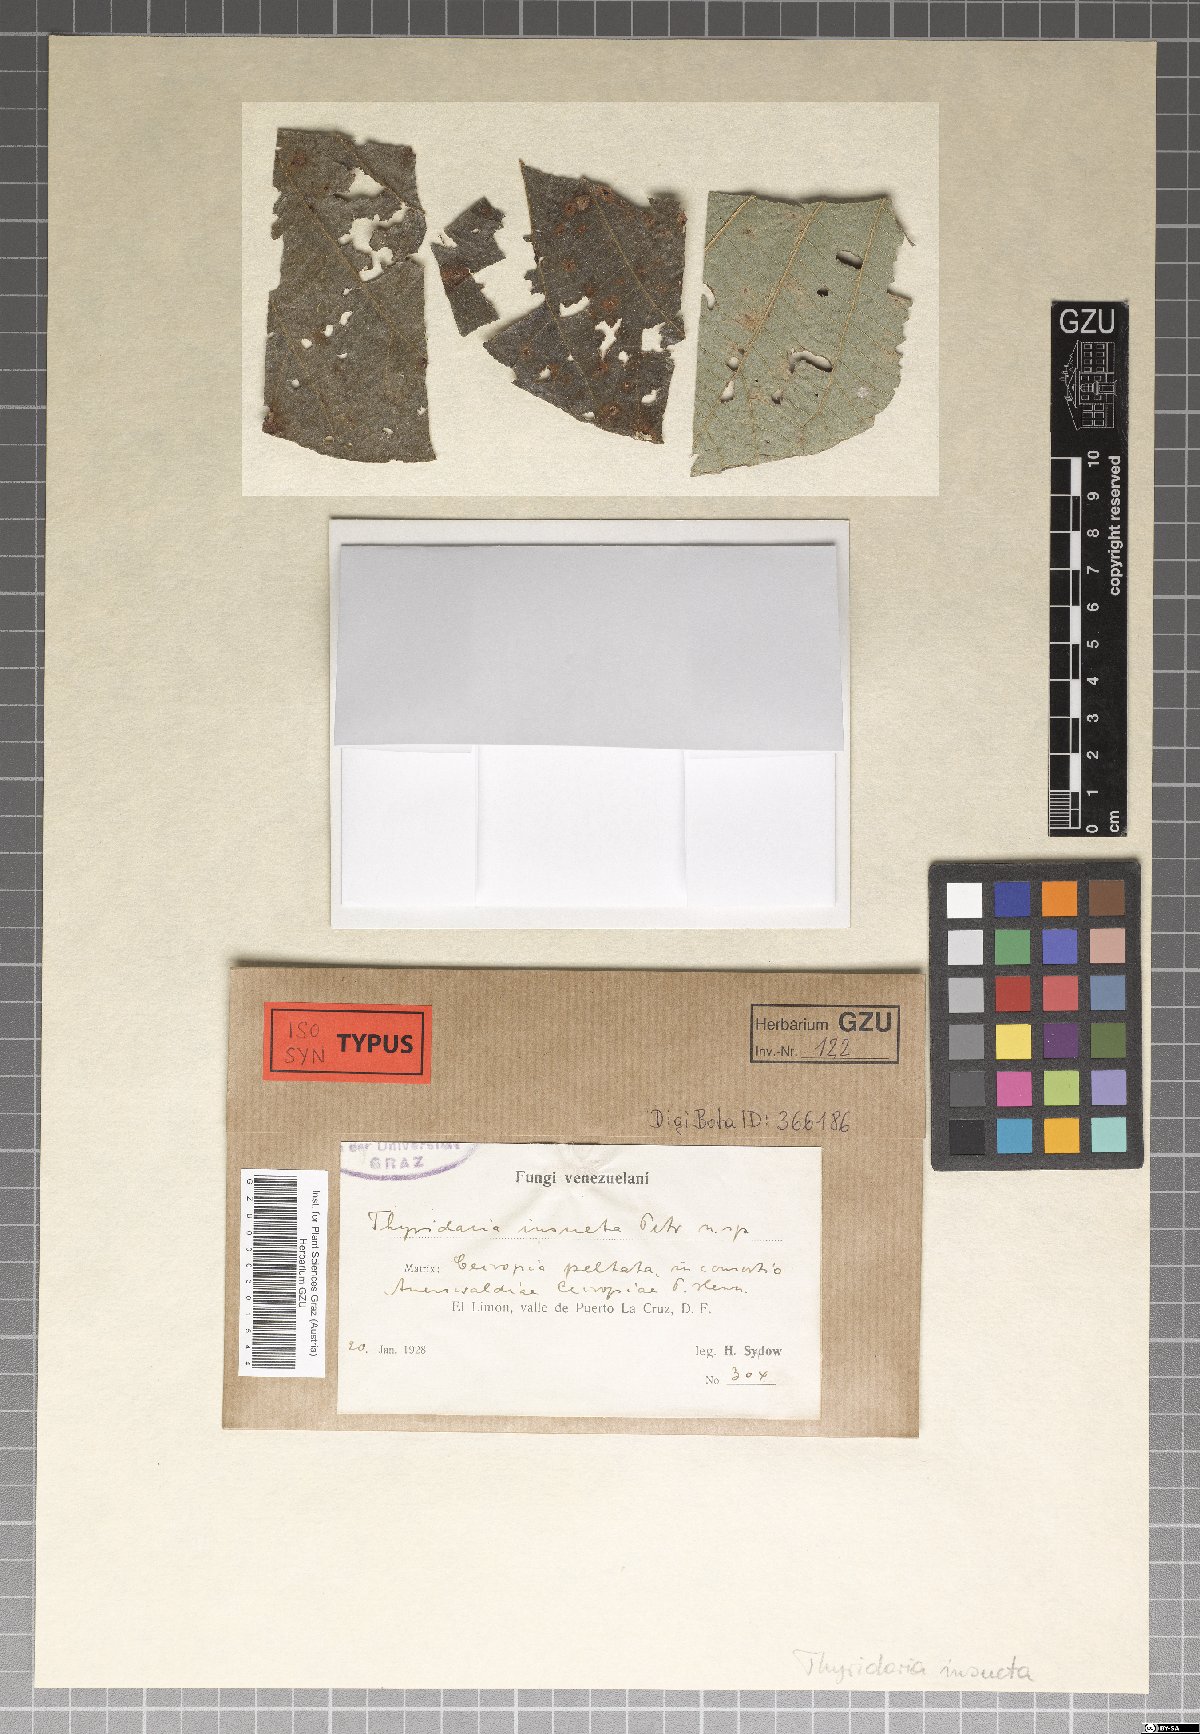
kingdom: Fungi
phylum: Ascomycota
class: Dothideomycetes
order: Pleosporales
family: Thyridariaceae
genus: Thyridaria
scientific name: Thyridaria insueta
